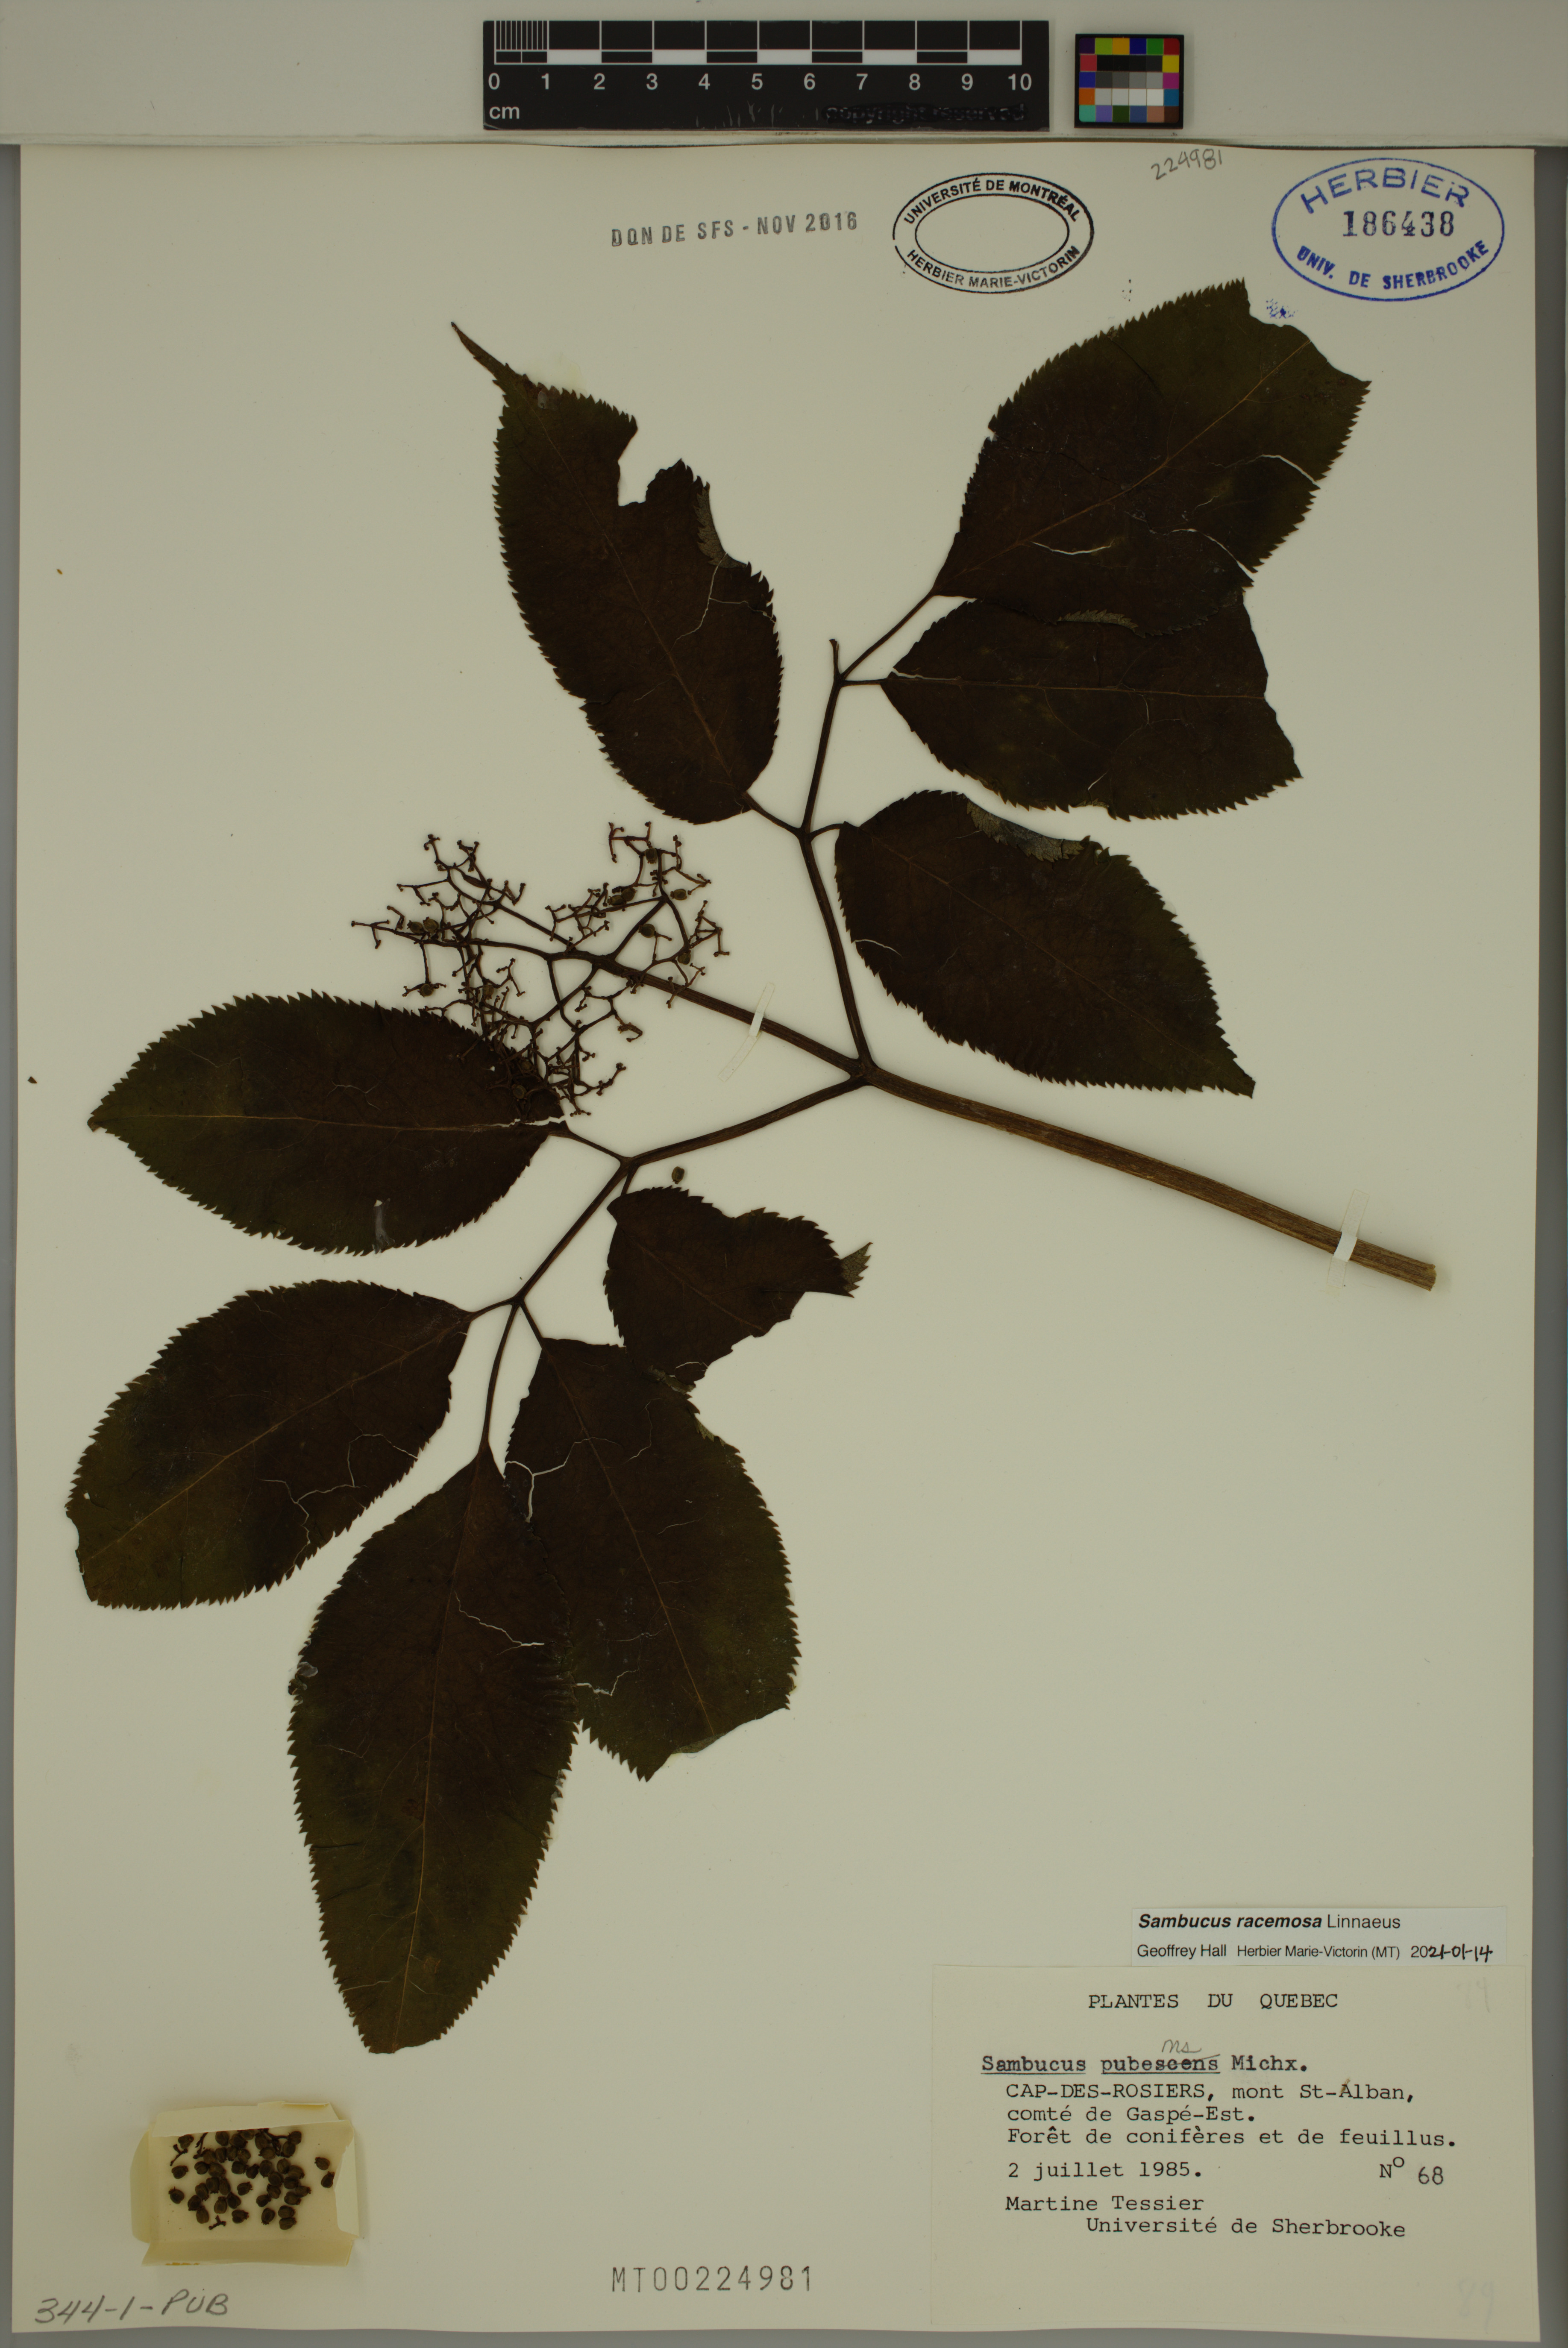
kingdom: Plantae
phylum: Tracheophyta
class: Magnoliopsida
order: Dipsacales
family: Viburnaceae
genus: Sambucus
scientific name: Sambucus racemosa
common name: Red-berried elder
